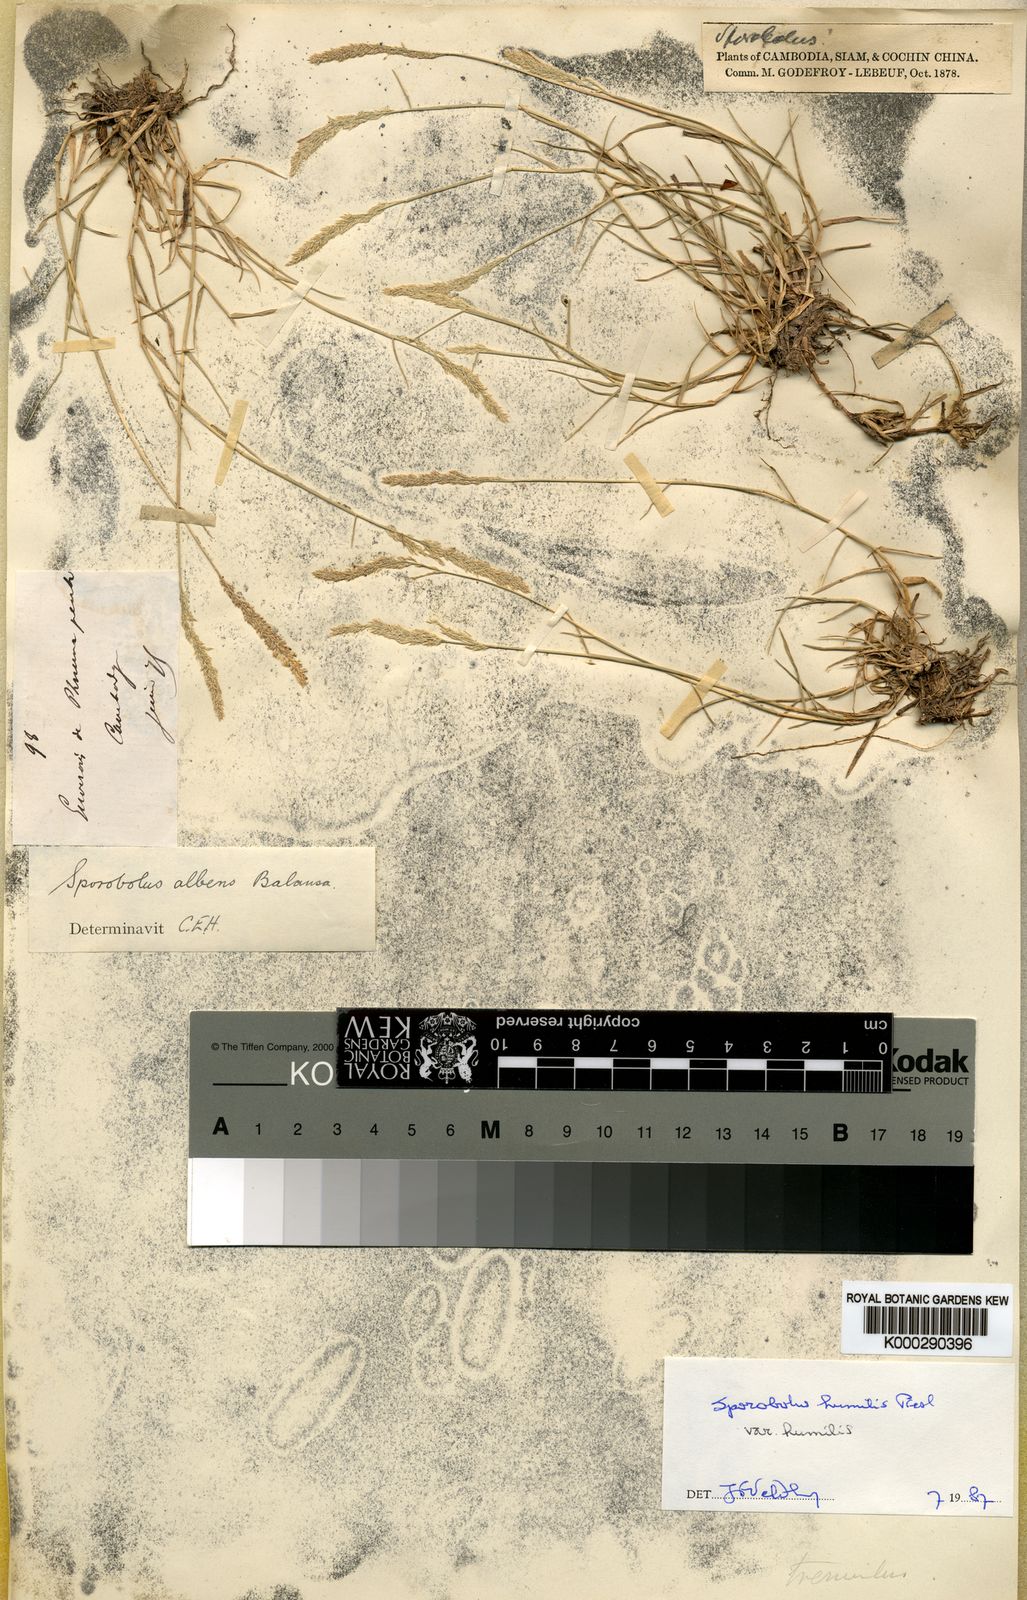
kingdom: Plantae
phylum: Tracheophyta
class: Liliopsida
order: Poales
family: Poaceae
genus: Sporobolus
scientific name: Sporobolus humilis
